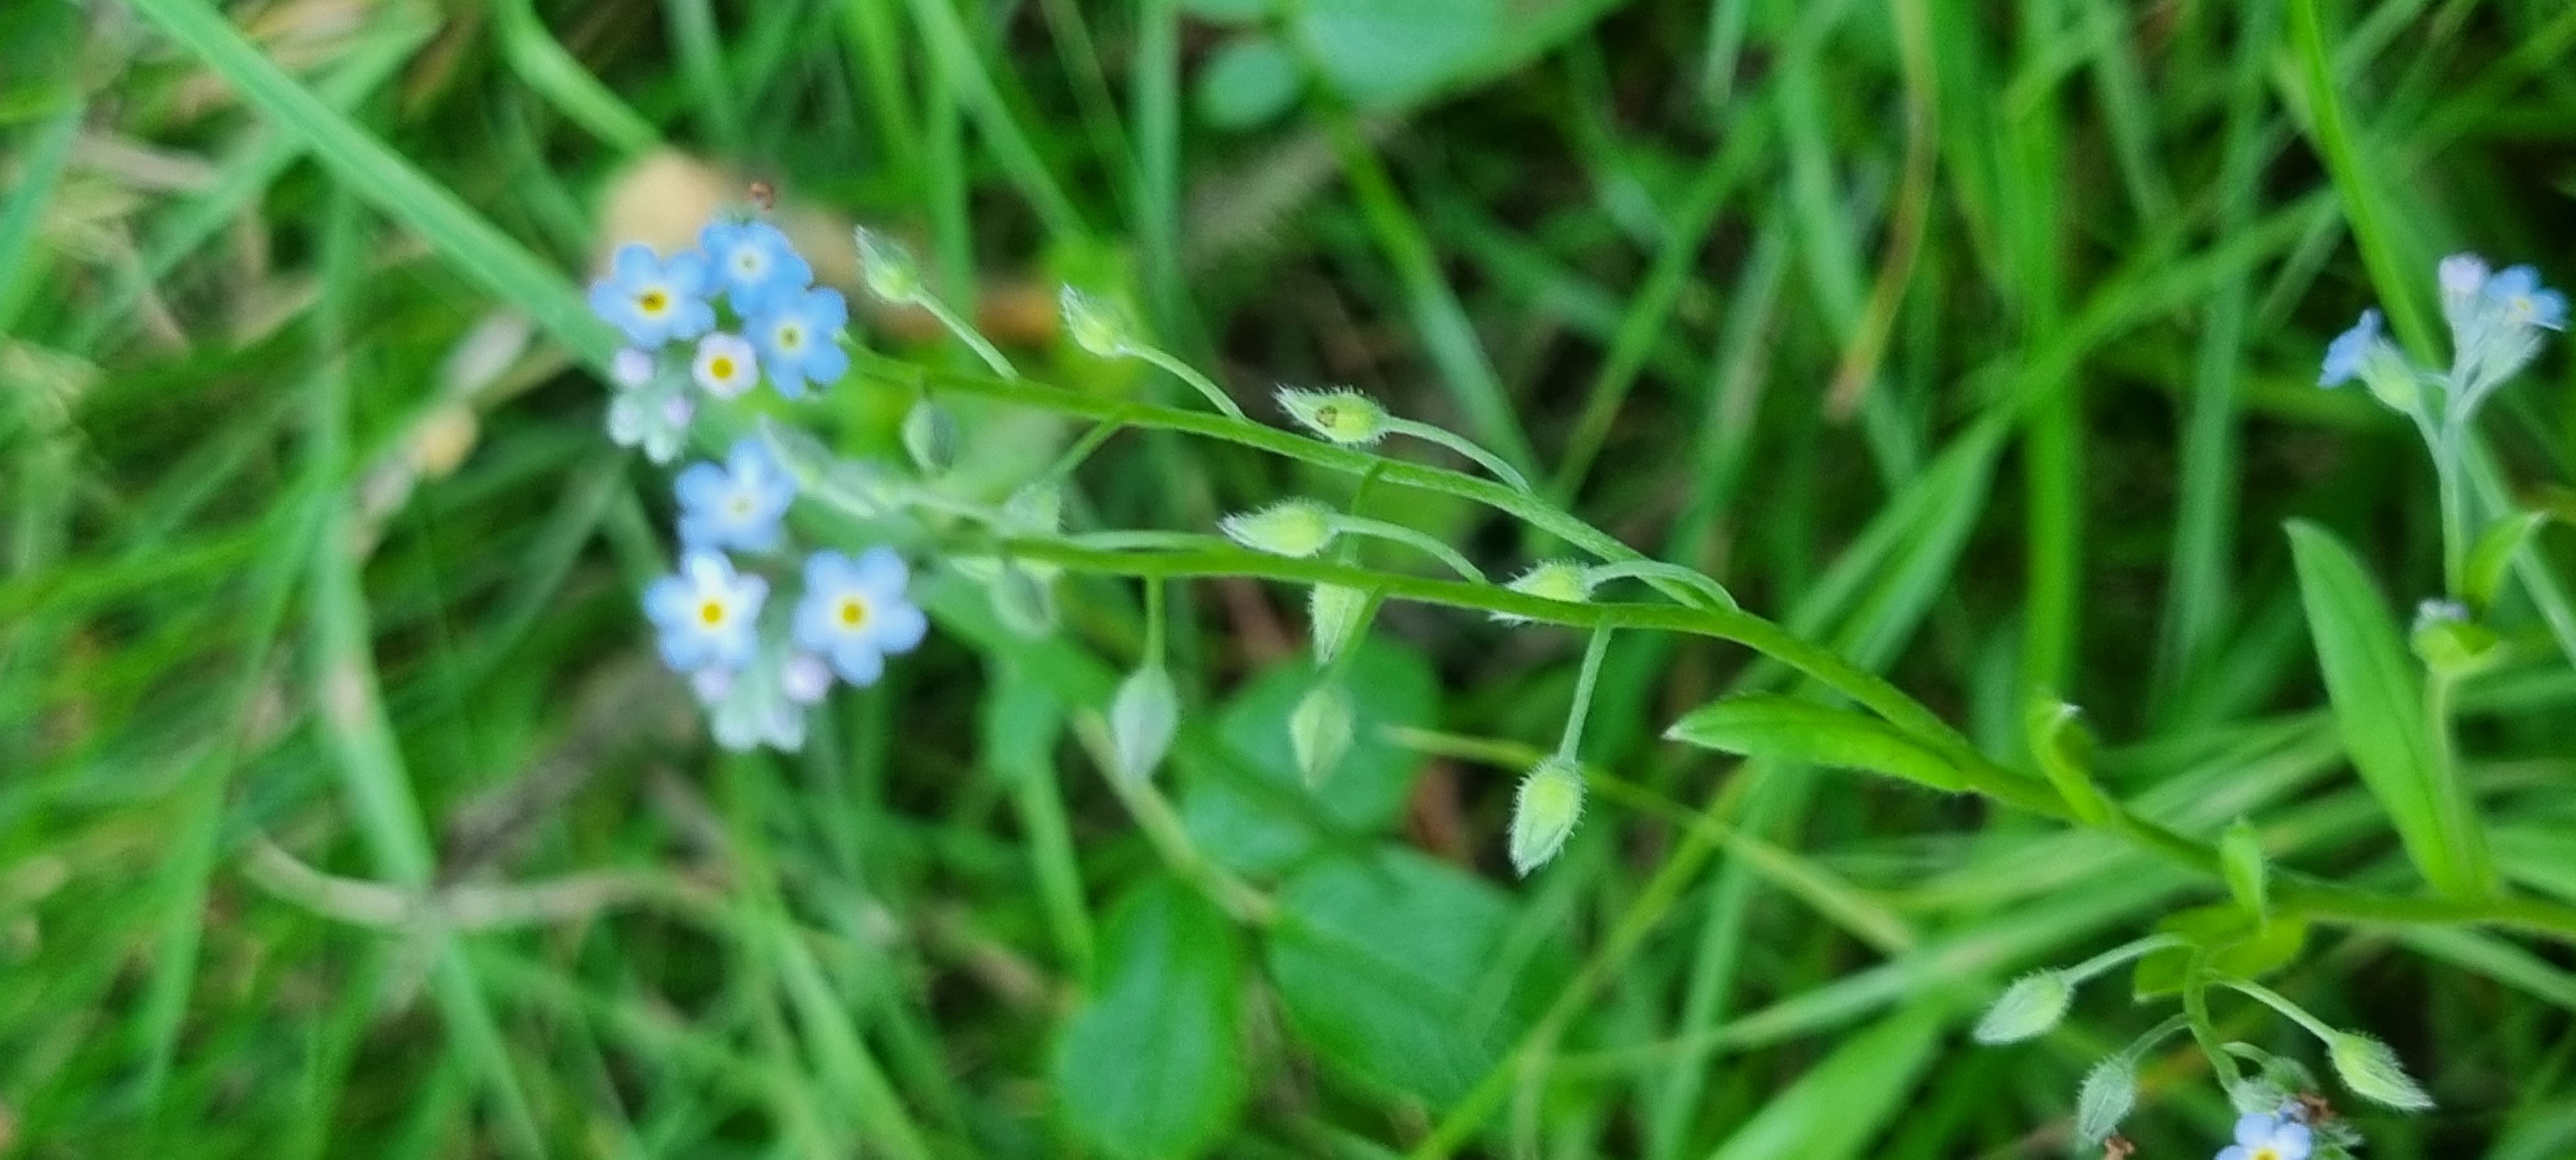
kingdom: Plantae
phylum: Tracheophyta
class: Magnoliopsida
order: Boraginales
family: Boraginaceae
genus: Myosotis
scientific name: Myosotis arvensis
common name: Mark-forglemmigej
